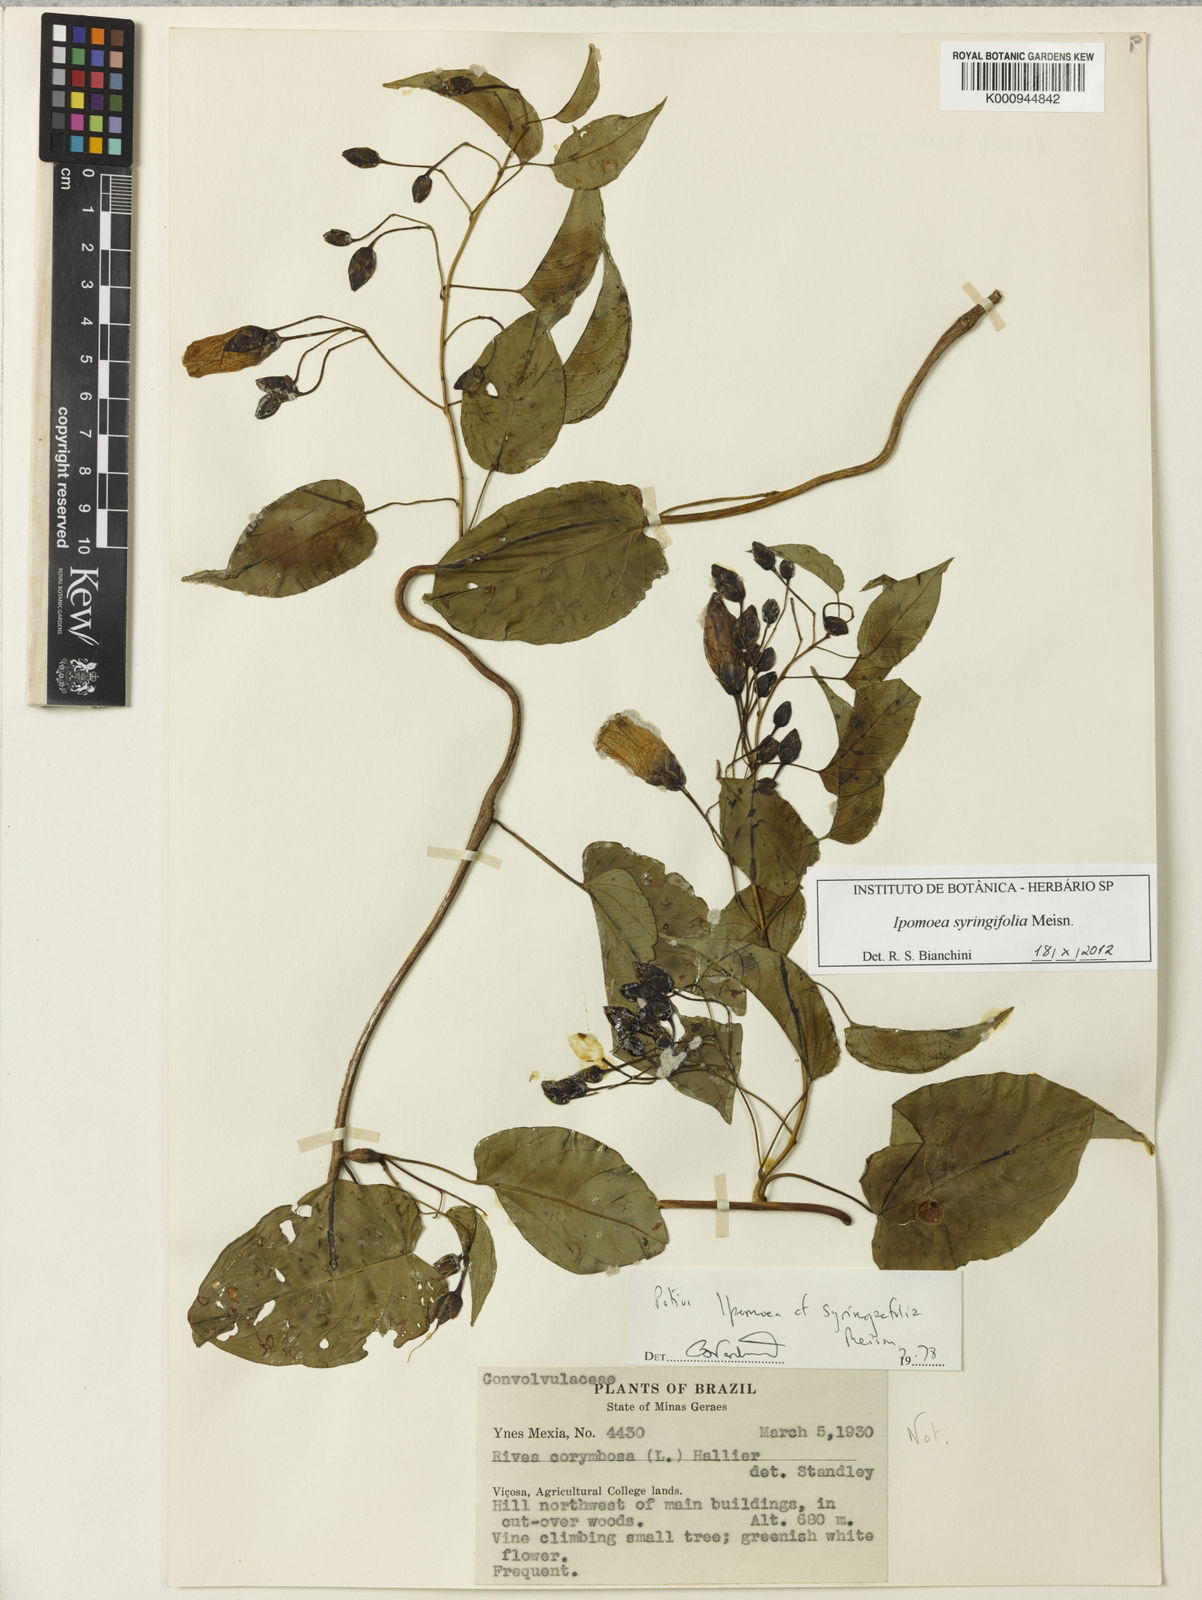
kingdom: Plantae
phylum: Tracheophyta
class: Magnoliopsida
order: Solanales
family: Convolvulaceae
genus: Ipomoea
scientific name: Ipomoea
